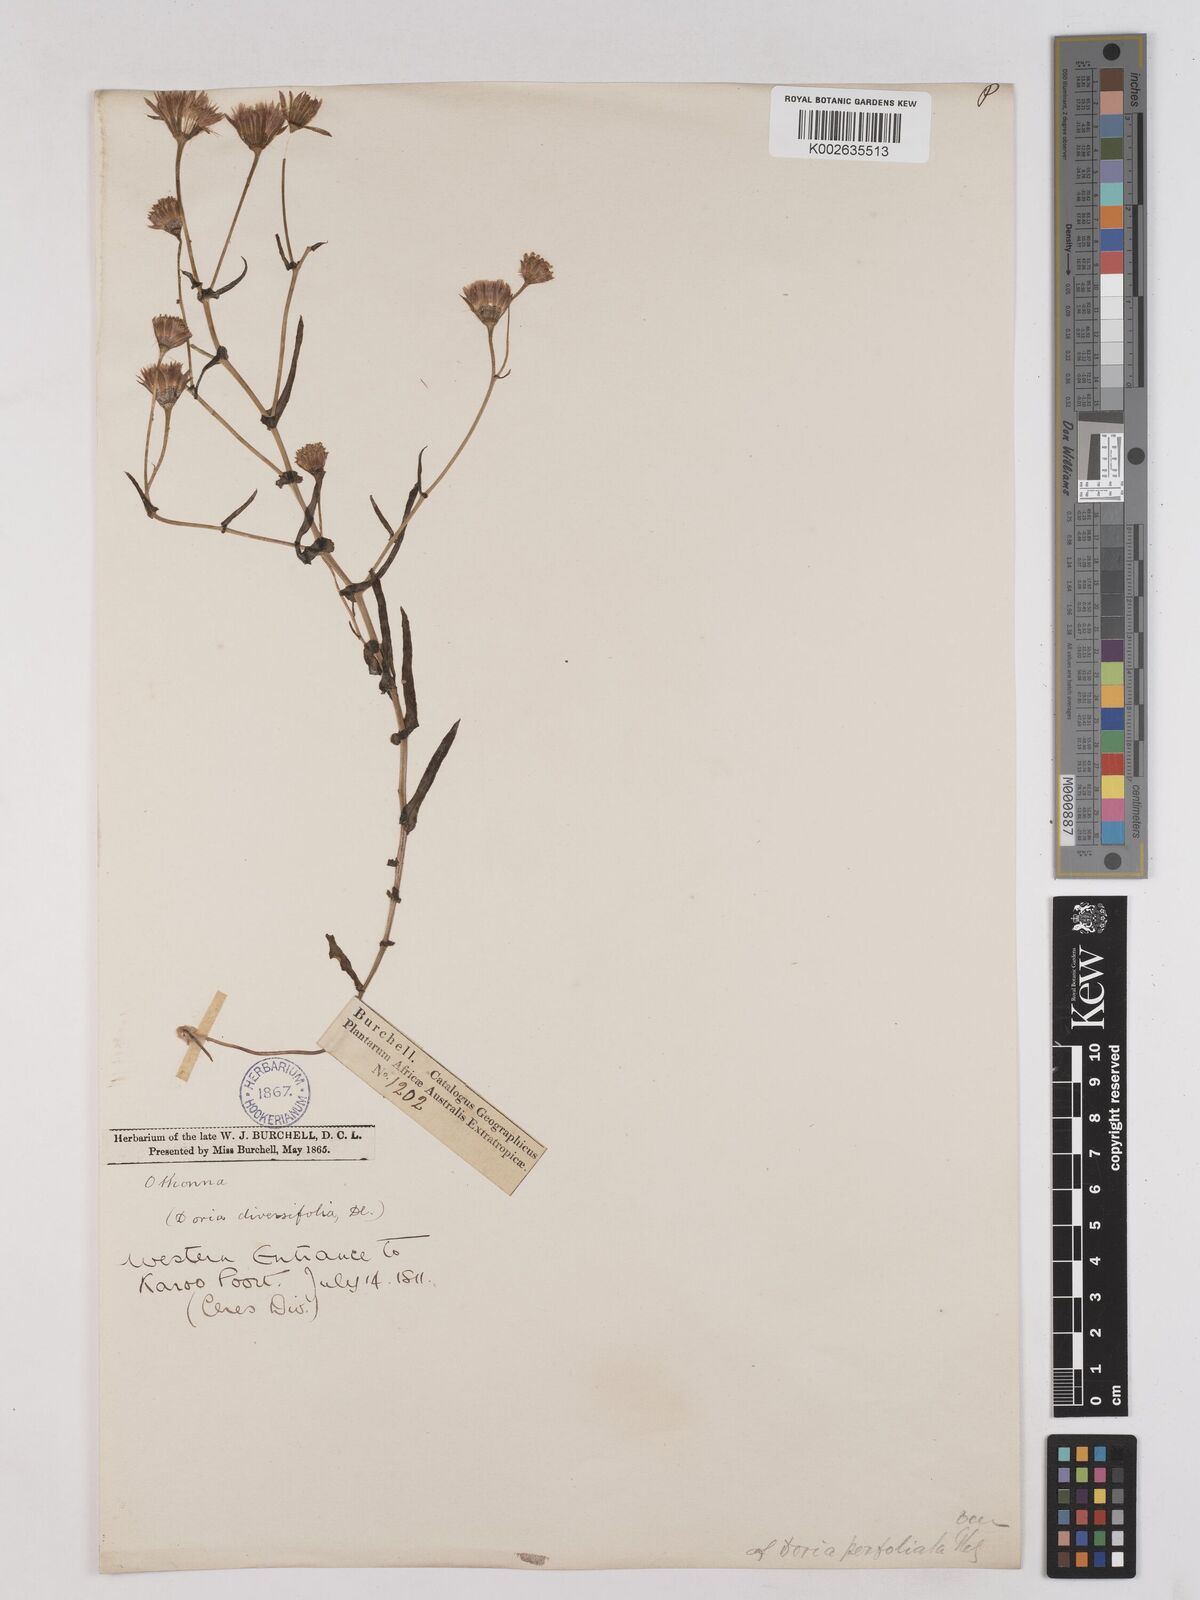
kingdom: Plantae
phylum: Tracheophyta
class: Magnoliopsida
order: Asterales
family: Asteraceae
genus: Othonna
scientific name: Othonna perfoliata
